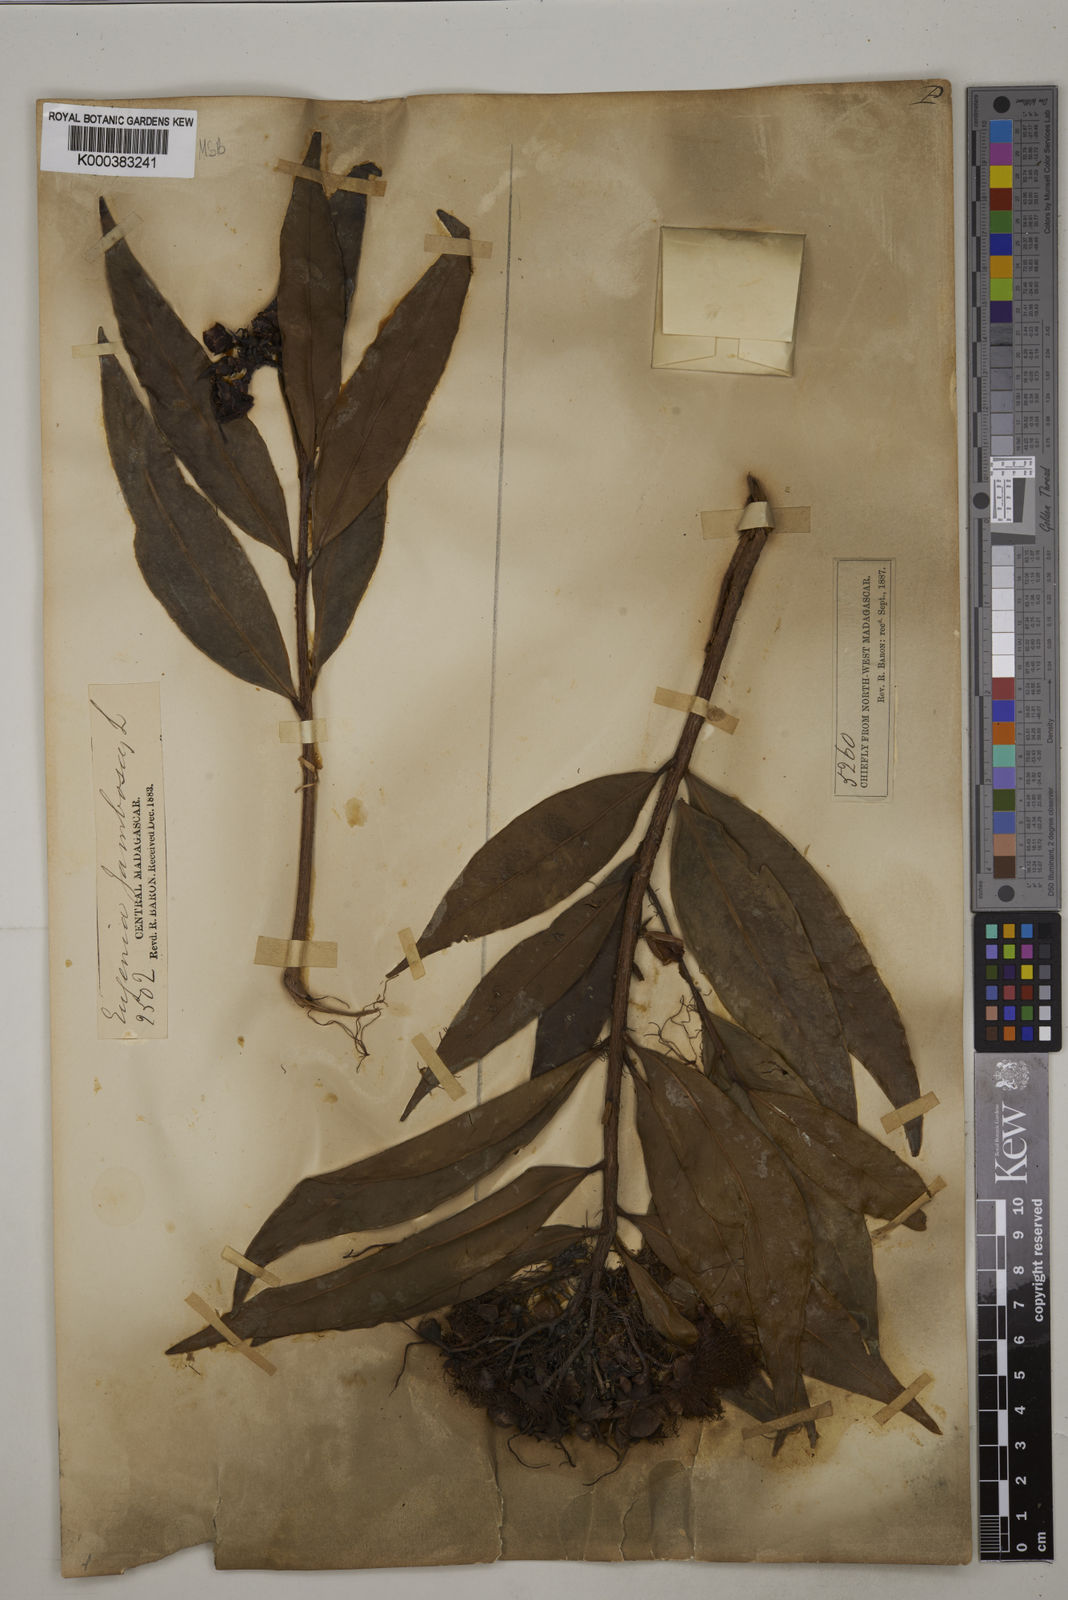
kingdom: Plantae
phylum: Tracheophyta
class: Magnoliopsida
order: Myrtales
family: Myrtaceae
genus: Syzygium
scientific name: Syzygium jambos
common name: Malabar plum
